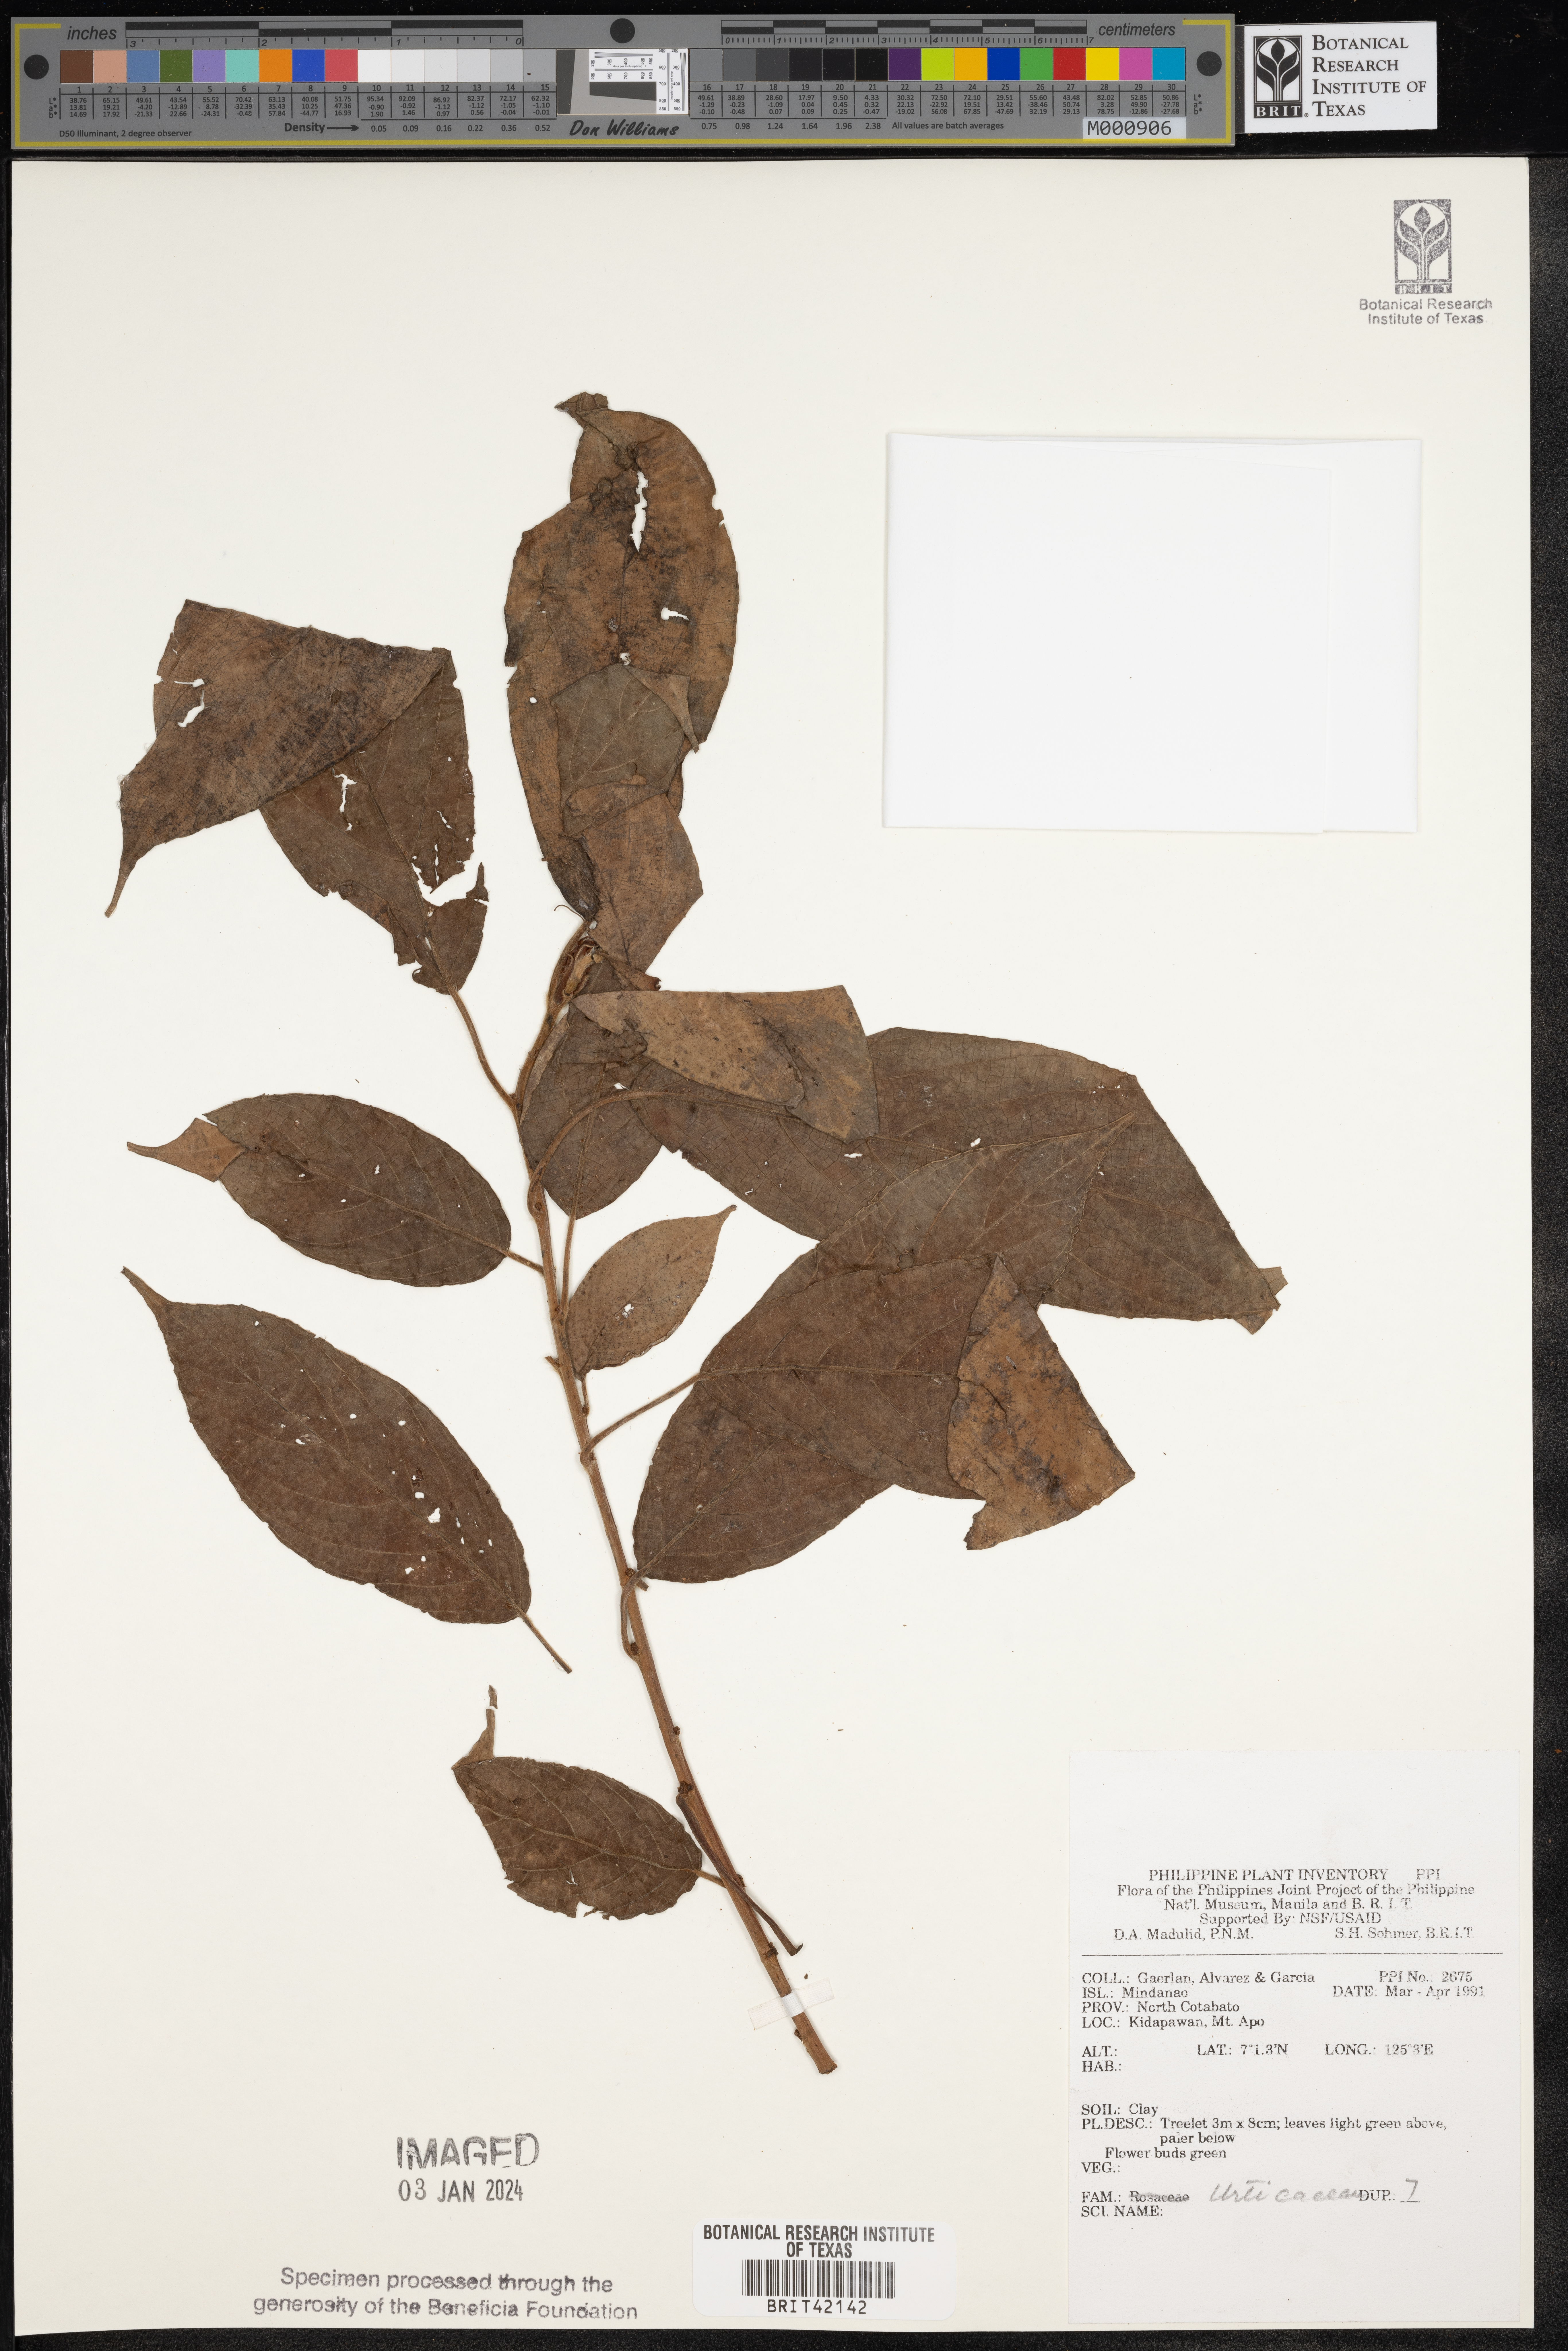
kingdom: Plantae
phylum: Tracheophyta
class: Magnoliopsida
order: Rosales
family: Urticaceae
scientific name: Urticaceae
